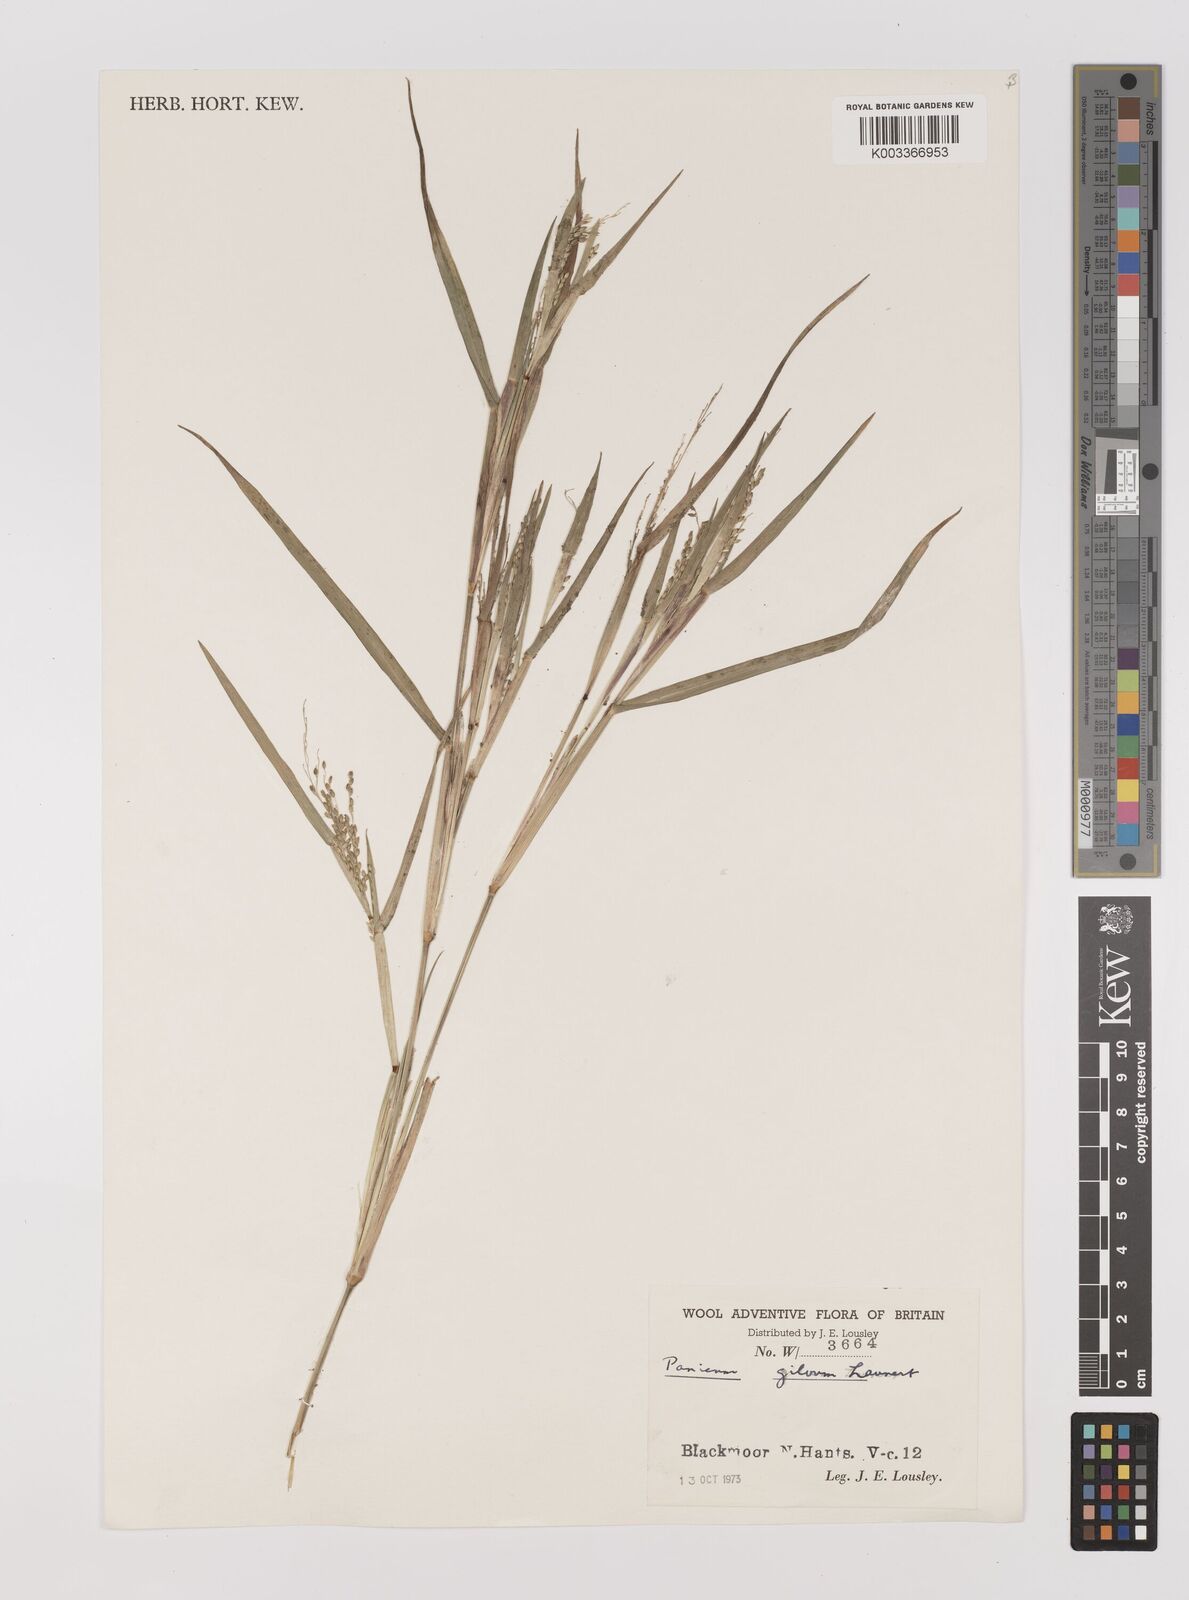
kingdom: Plantae
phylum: Tracheophyta
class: Liliopsida
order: Poales
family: Poaceae
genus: Panicum
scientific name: Panicum gilvum
